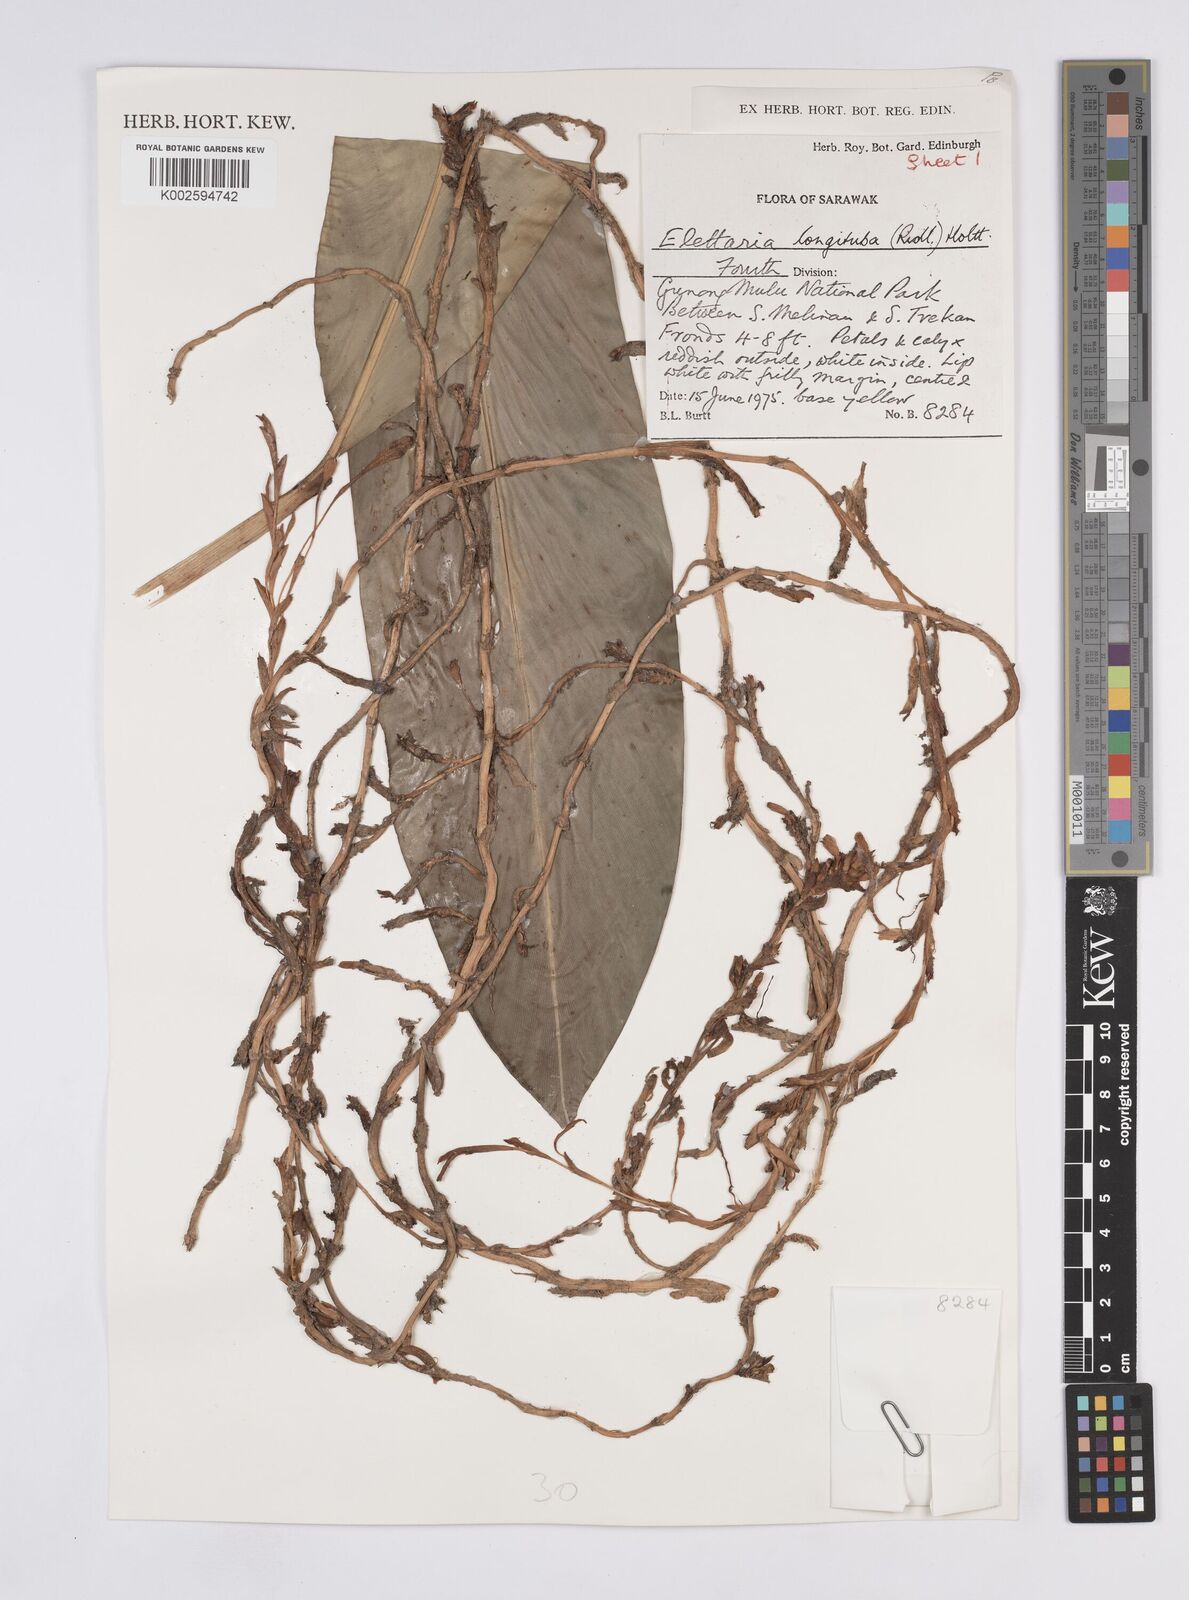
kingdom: Plantae
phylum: Tracheophyta
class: Liliopsida
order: Zingiberales
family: Zingiberaceae
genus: Sulettaria
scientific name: Sulettaria longituba
